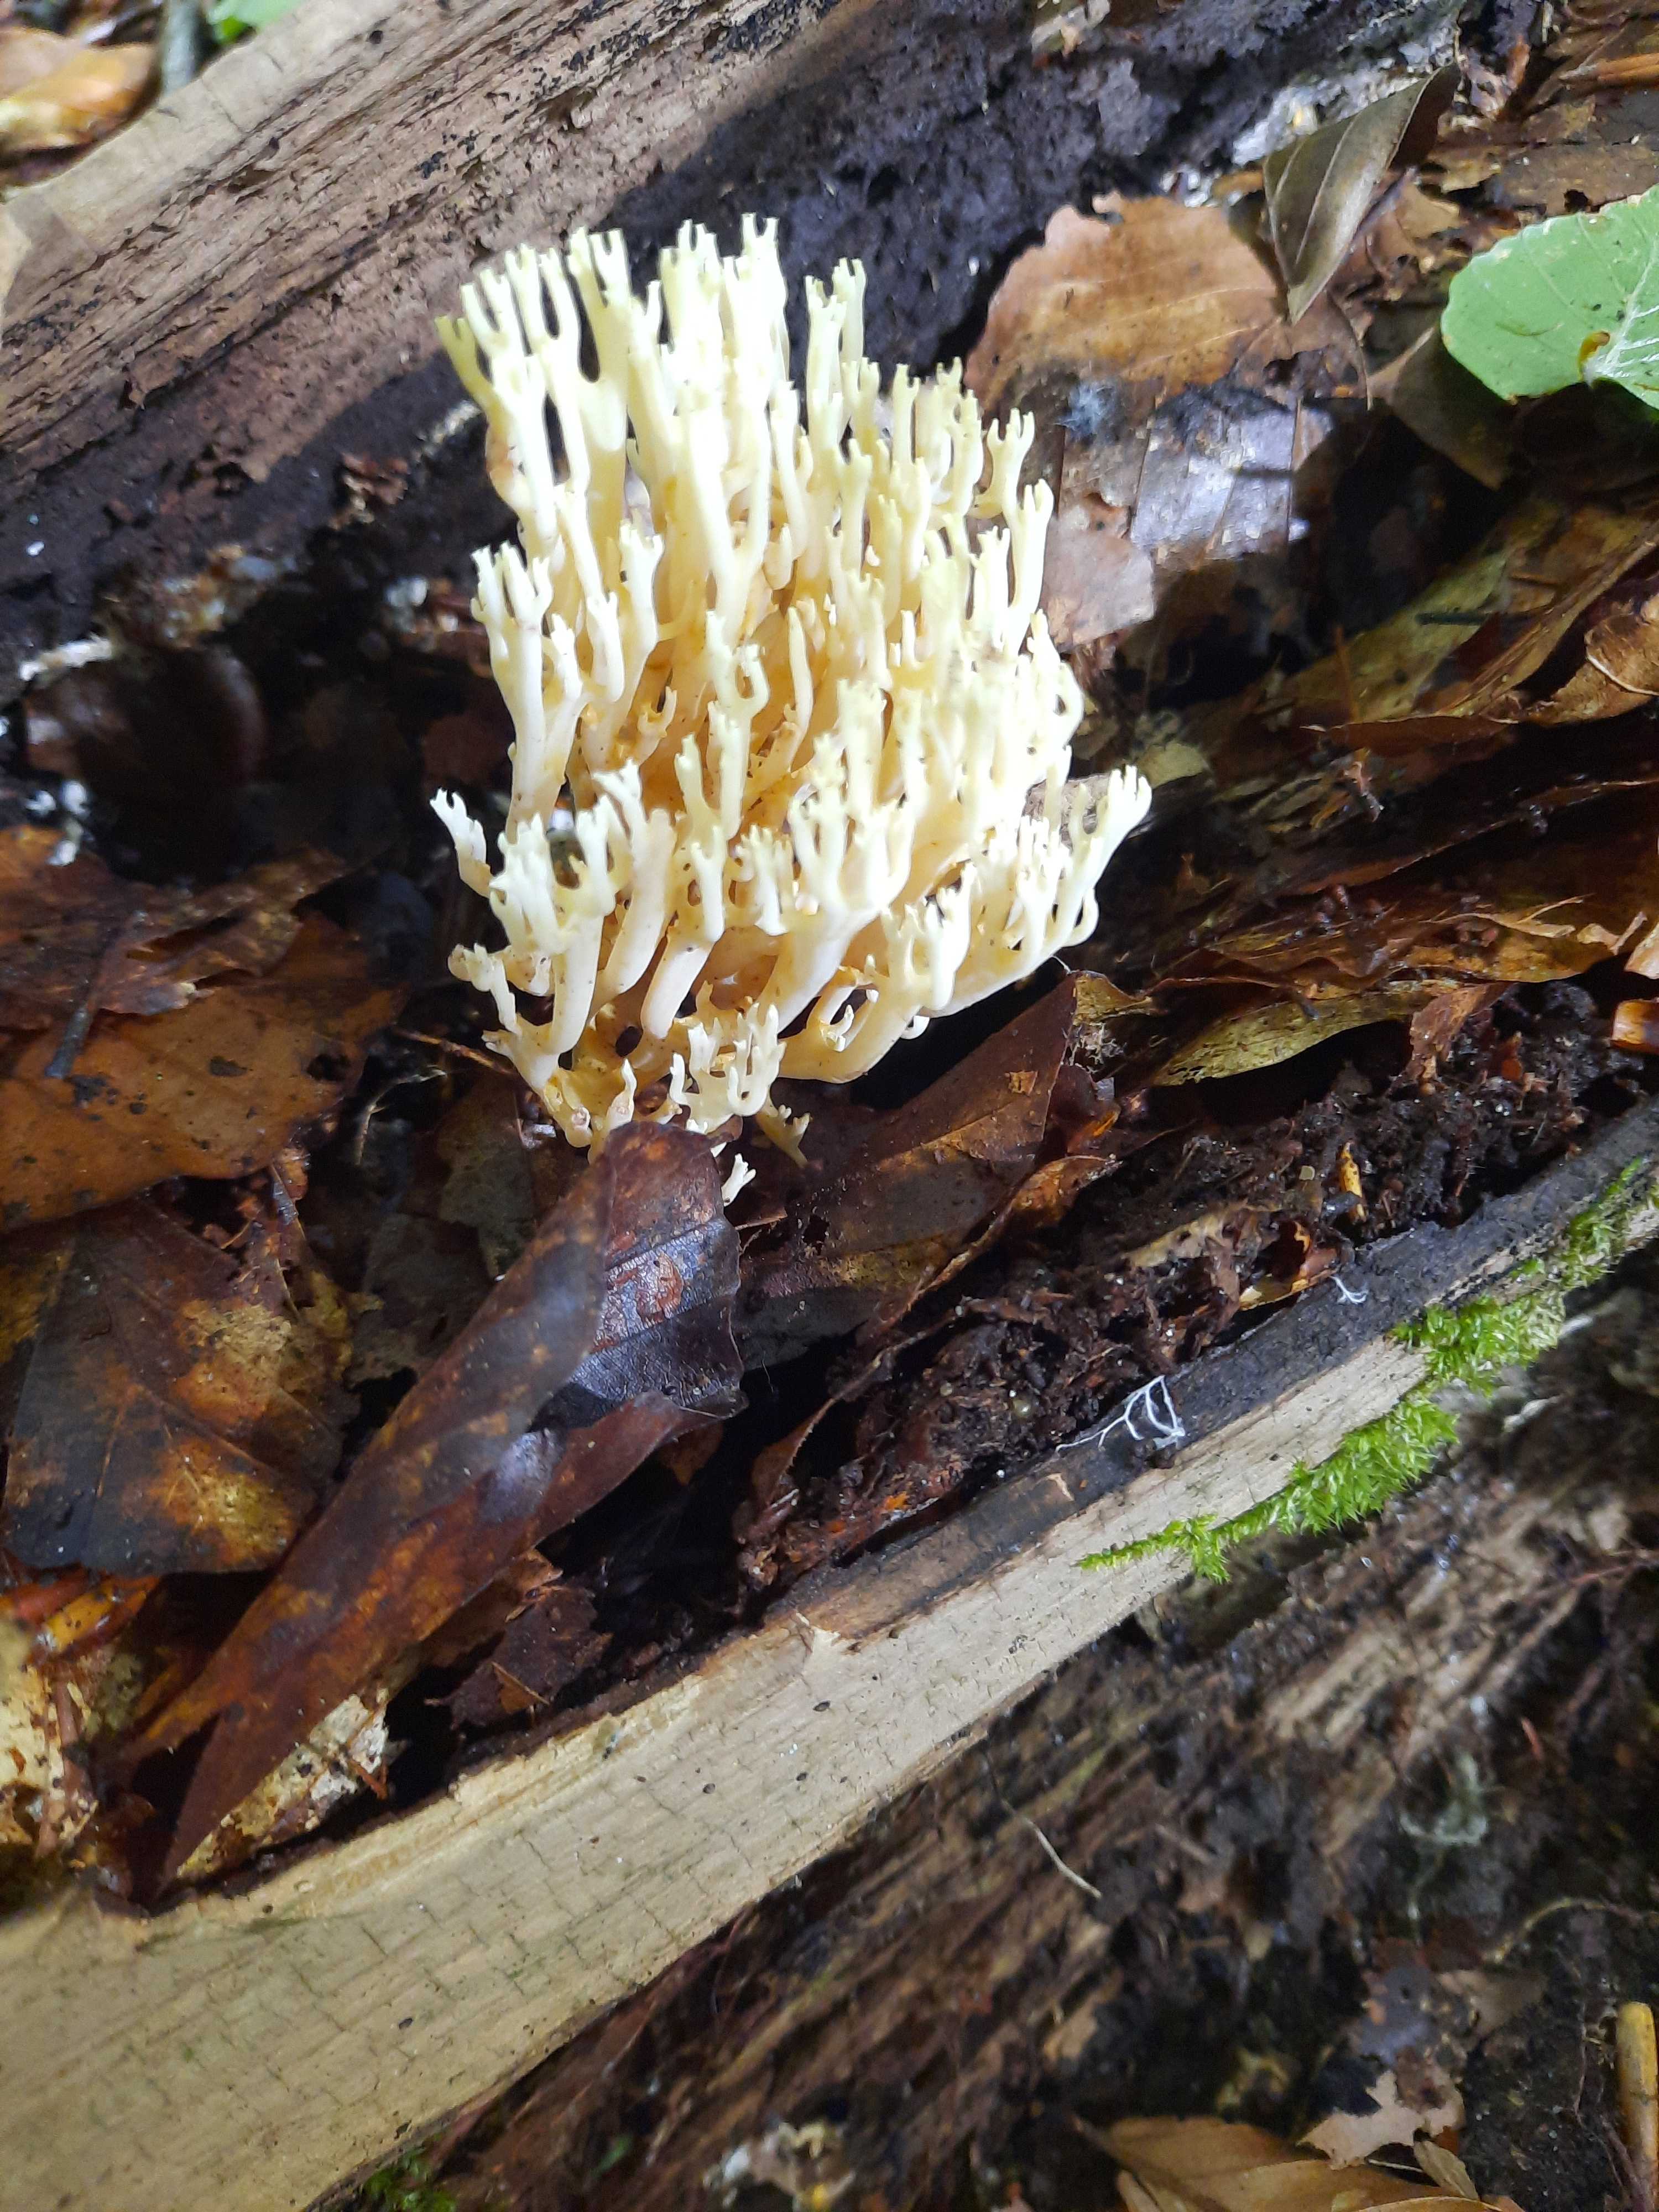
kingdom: Fungi
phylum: Basidiomycota
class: Agaricomycetes
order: Gomphales
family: Gomphaceae
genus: Ramaria
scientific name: Ramaria stricta
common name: rank koralsvamp
